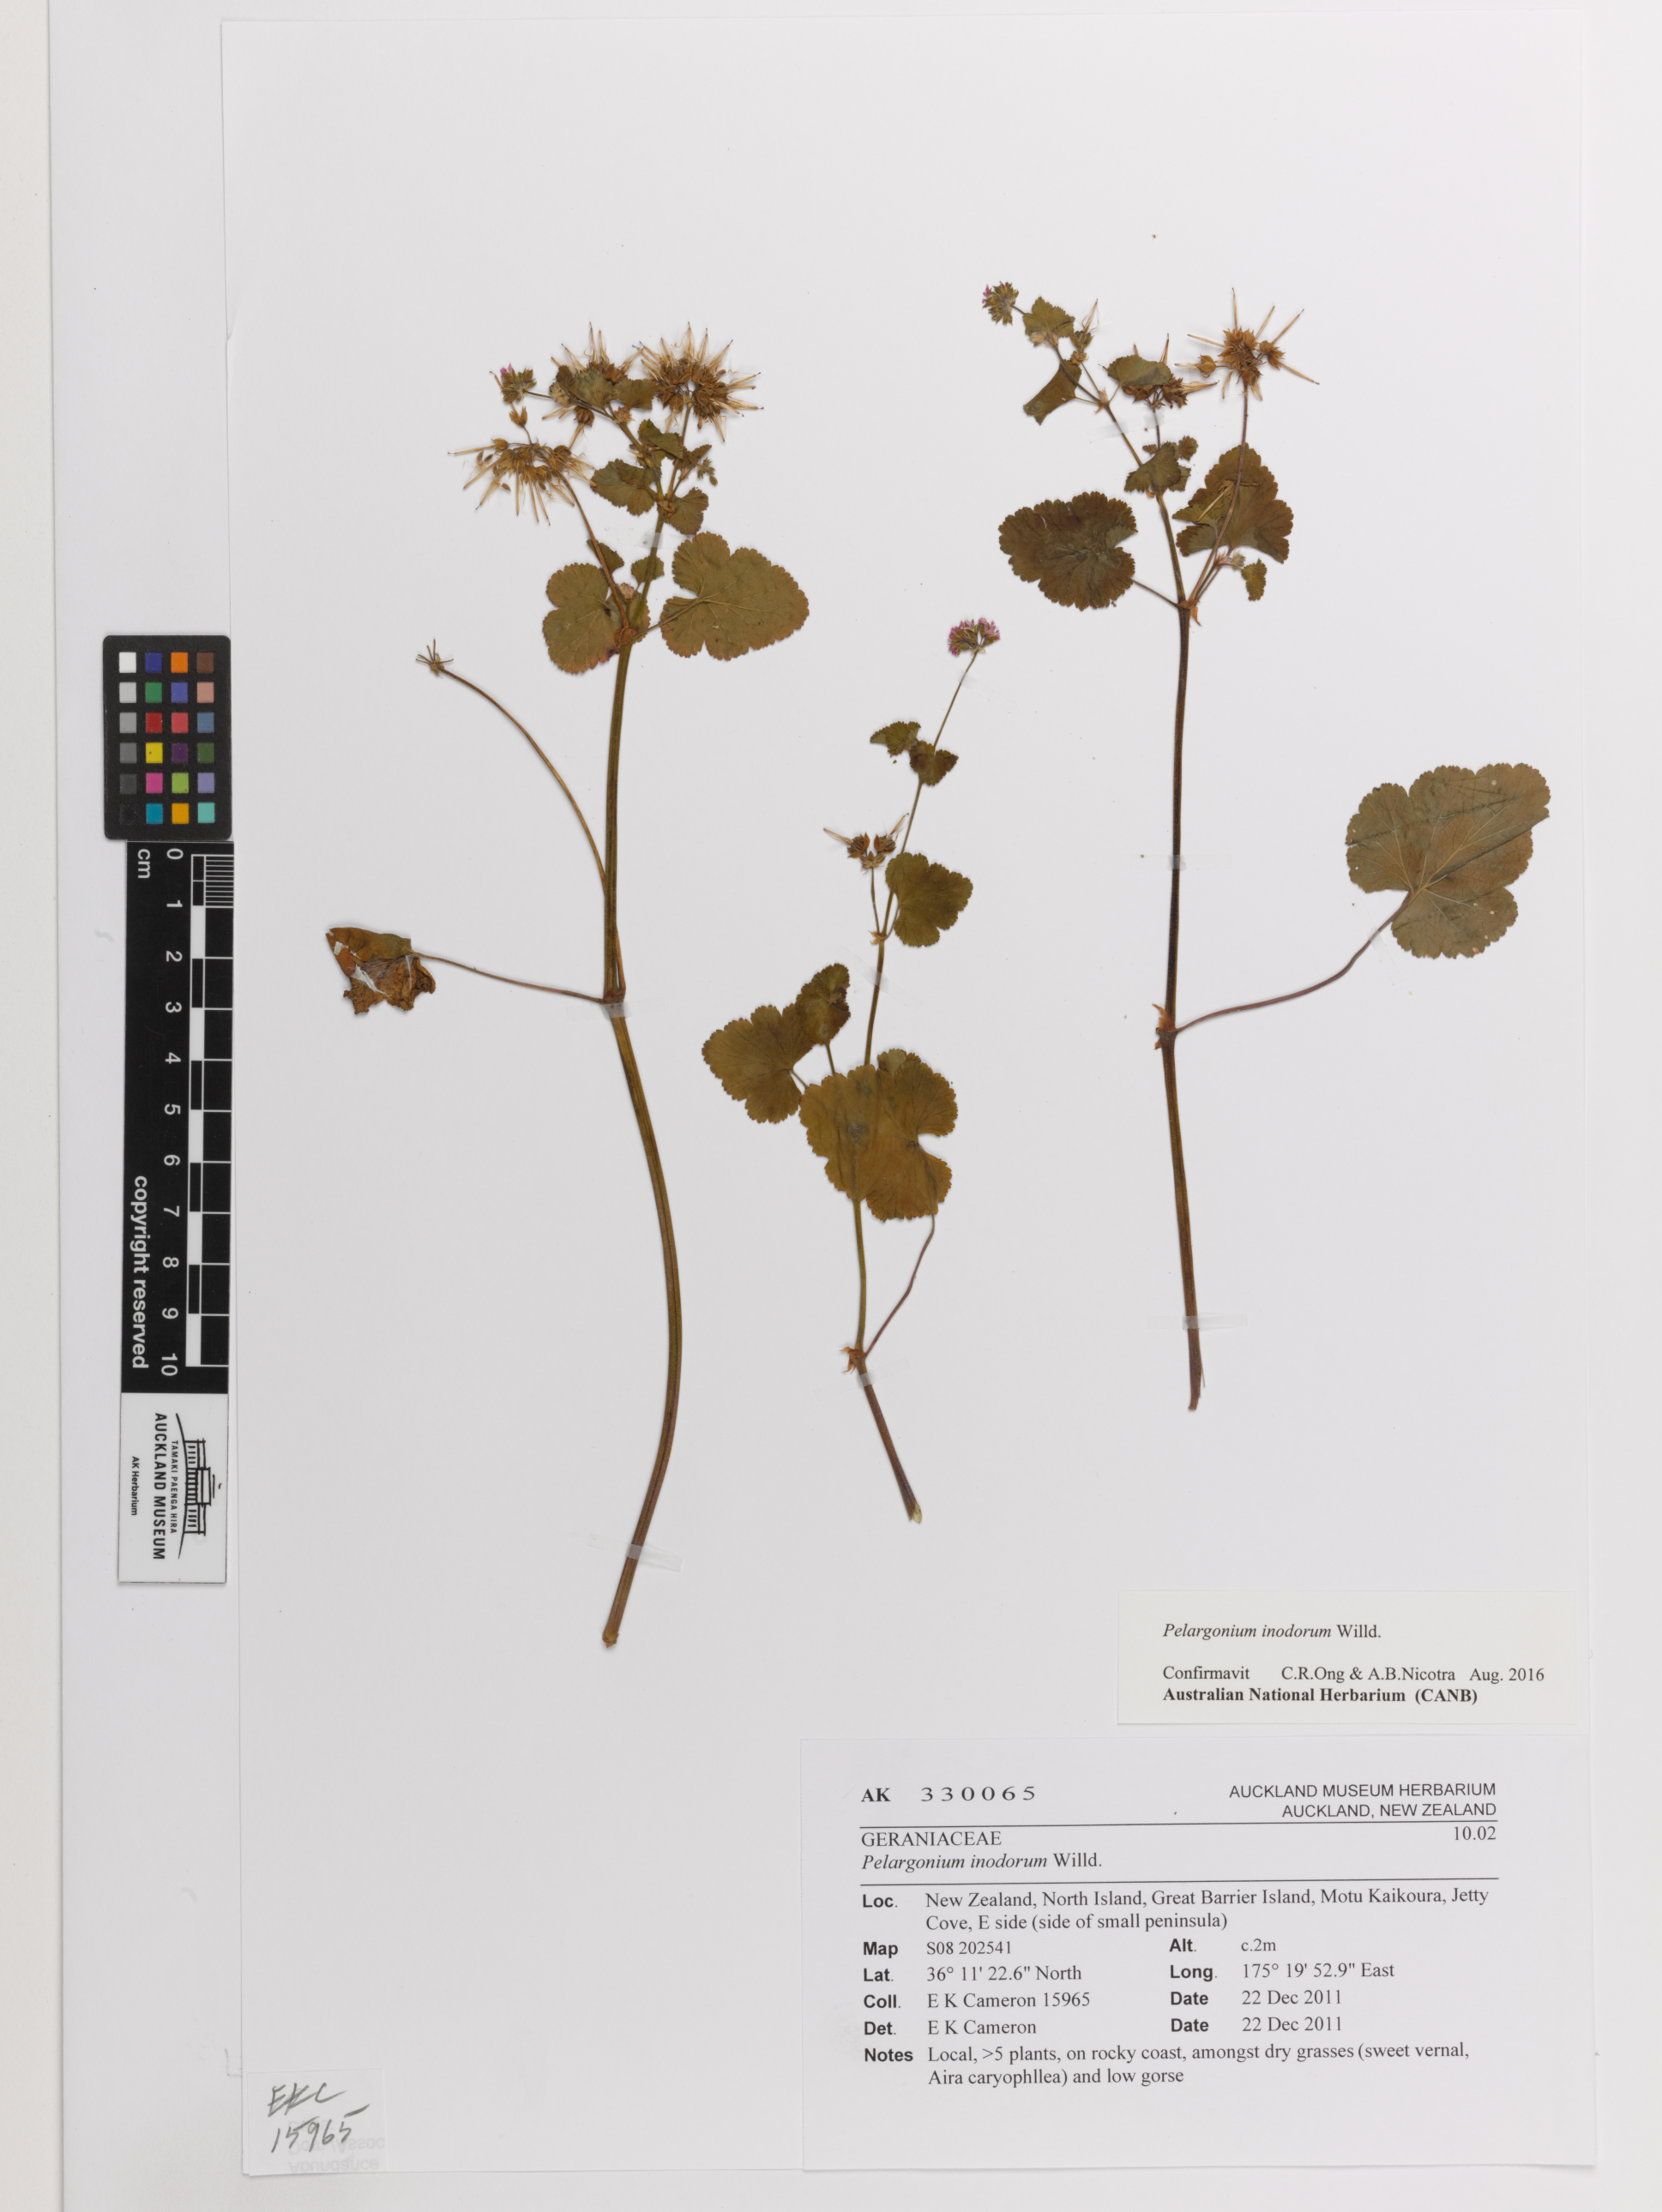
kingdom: Plantae
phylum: Tracheophyta
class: Magnoliopsida
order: Geraniales
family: Geraniaceae
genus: Pelargonium
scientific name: Pelargonium inodorum
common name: Kopata geranium
